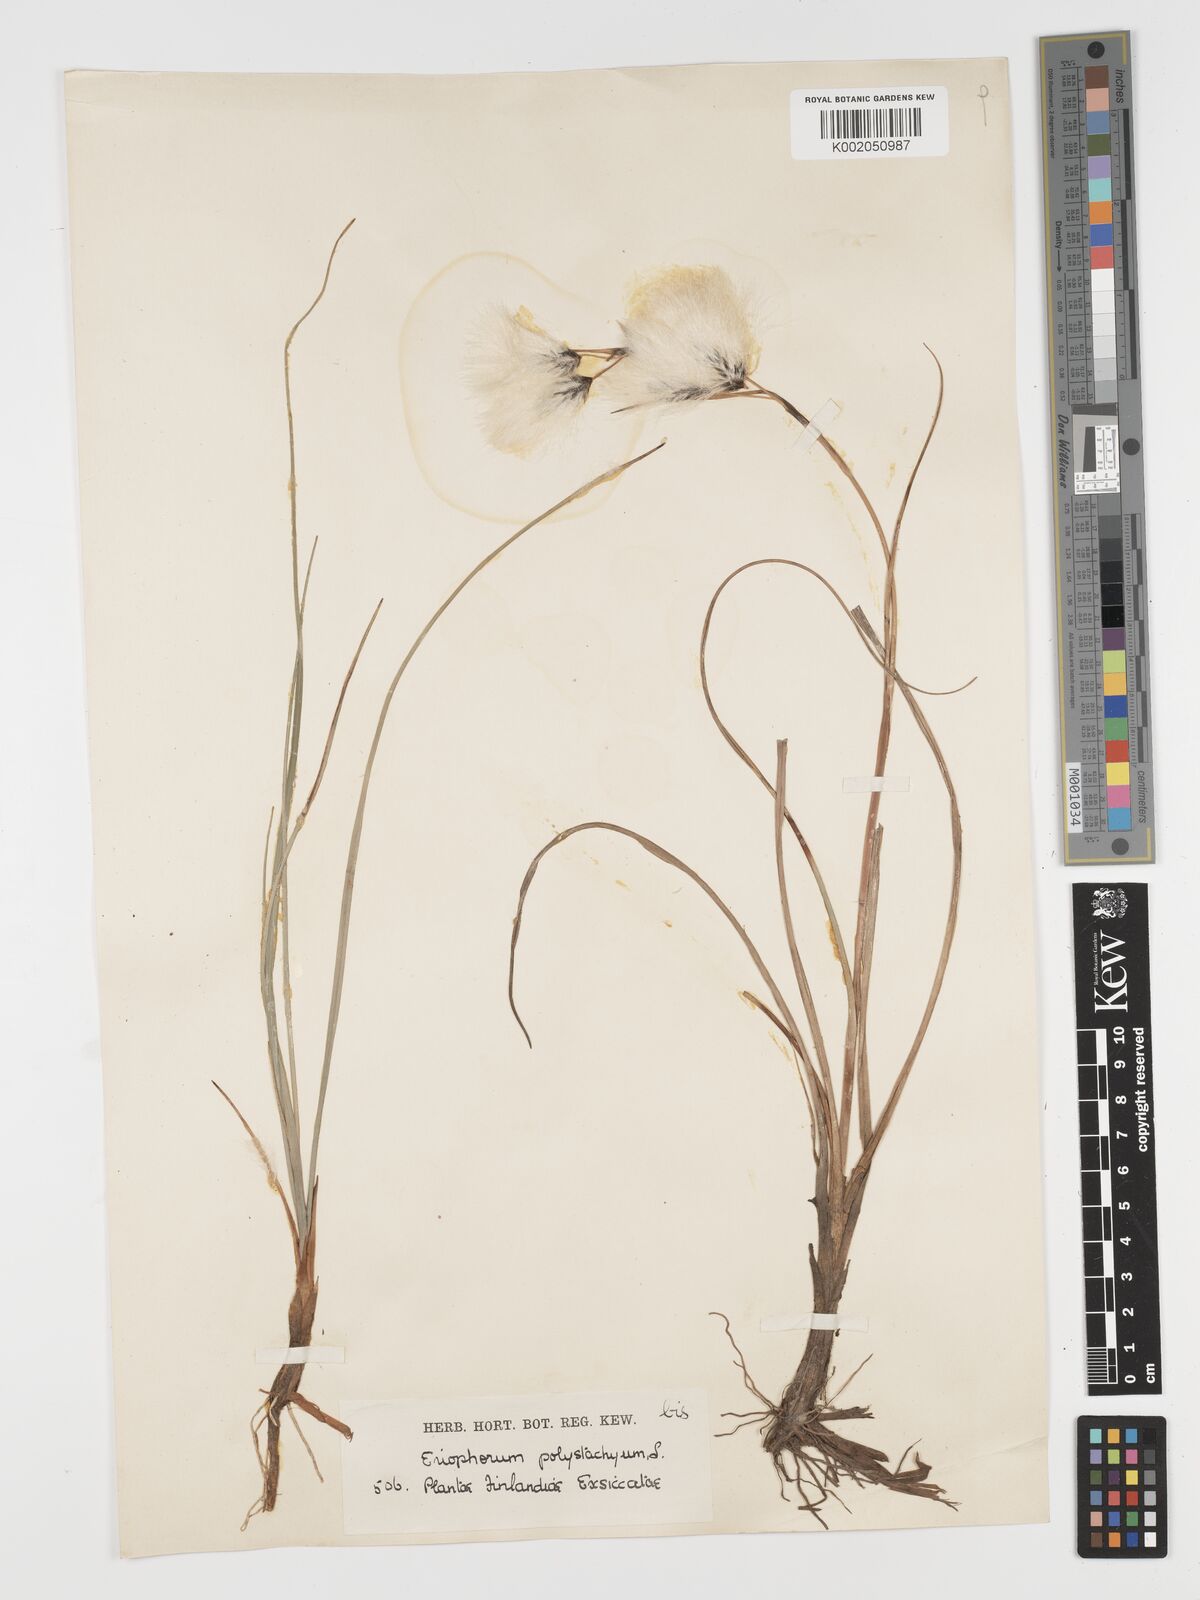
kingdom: Plantae
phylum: Tracheophyta
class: Liliopsida
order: Poales
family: Cyperaceae
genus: Eriophorum
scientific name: Eriophorum angustifolium
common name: Common cottongrass
